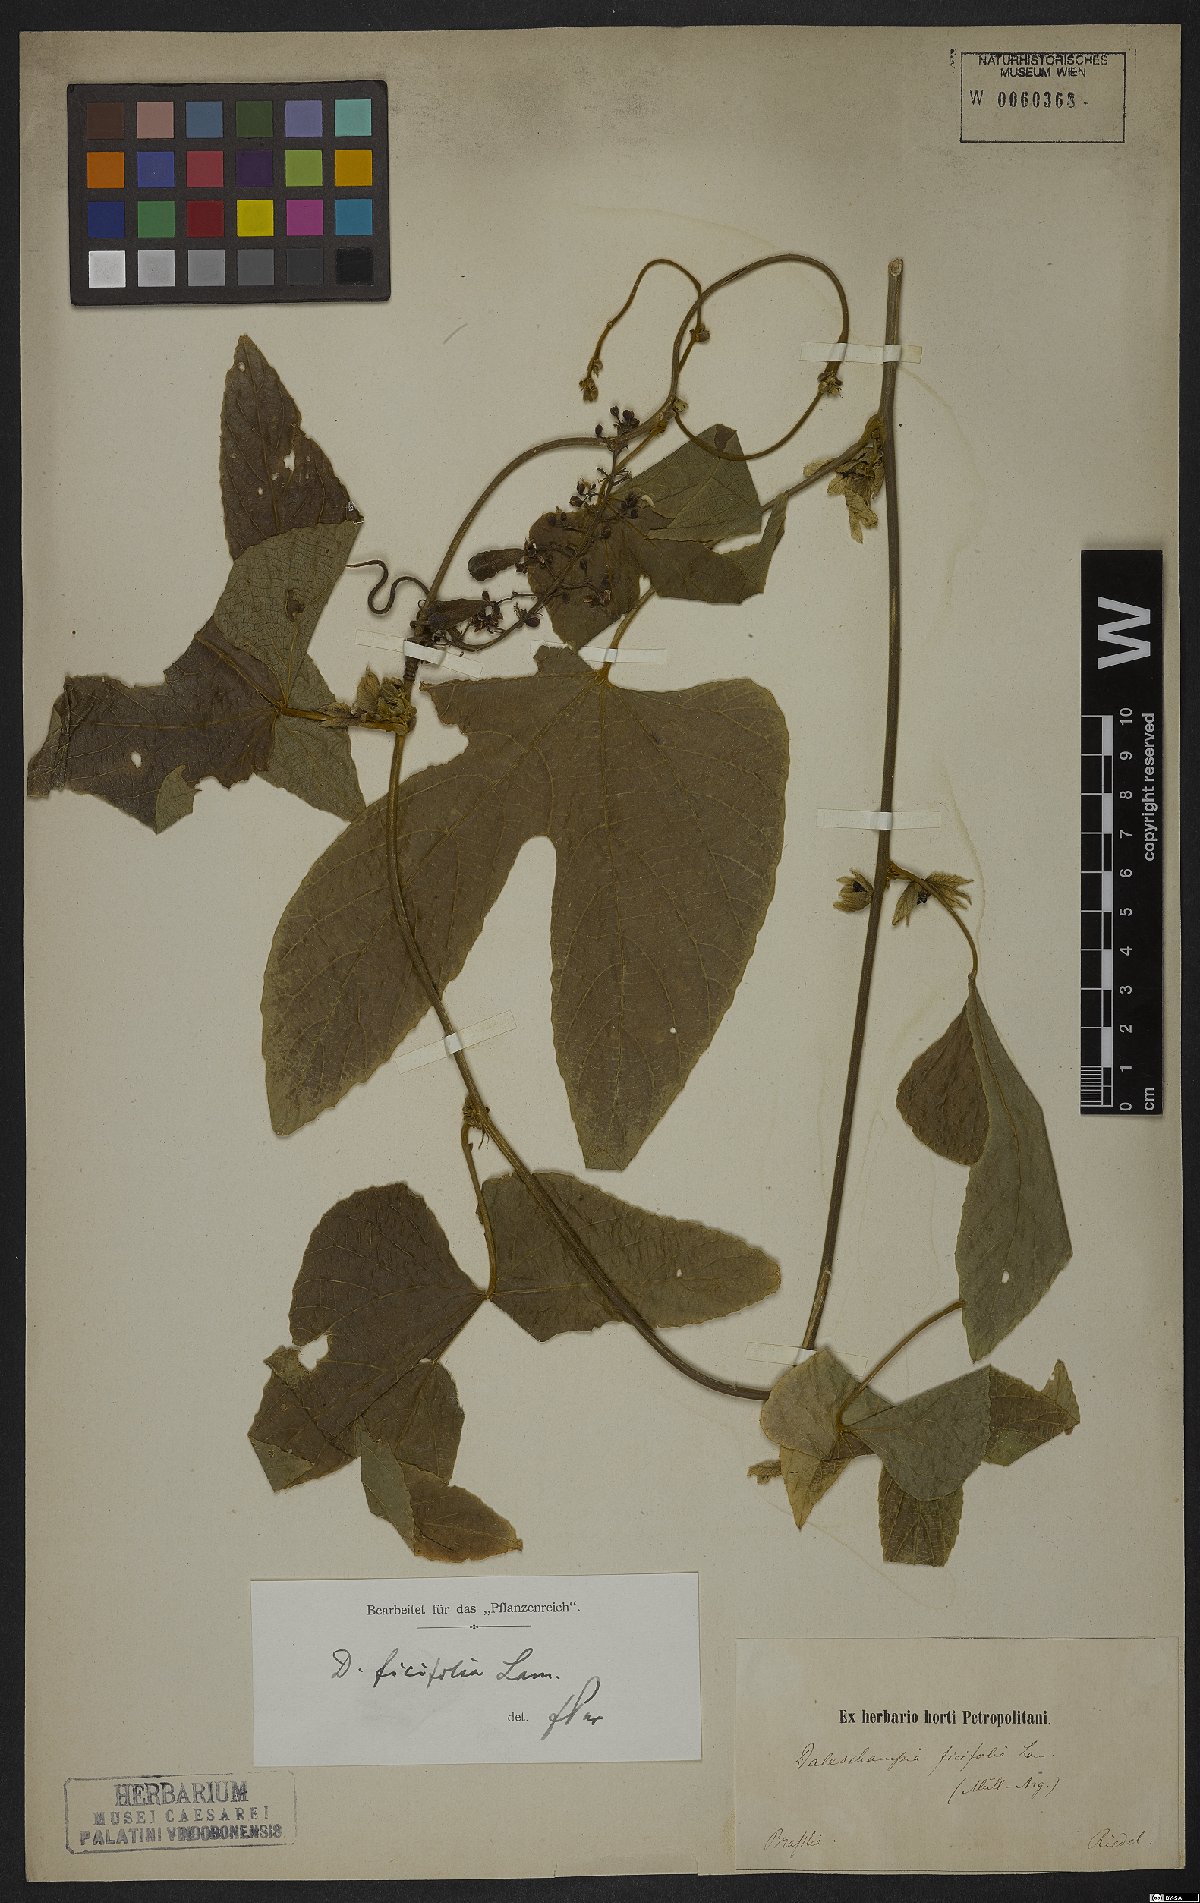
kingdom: Plantae
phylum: Tracheophyta
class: Magnoliopsida
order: Malpighiales
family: Euphorbiaceae
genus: Dalechampia
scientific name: Dalechampia ficifolia
